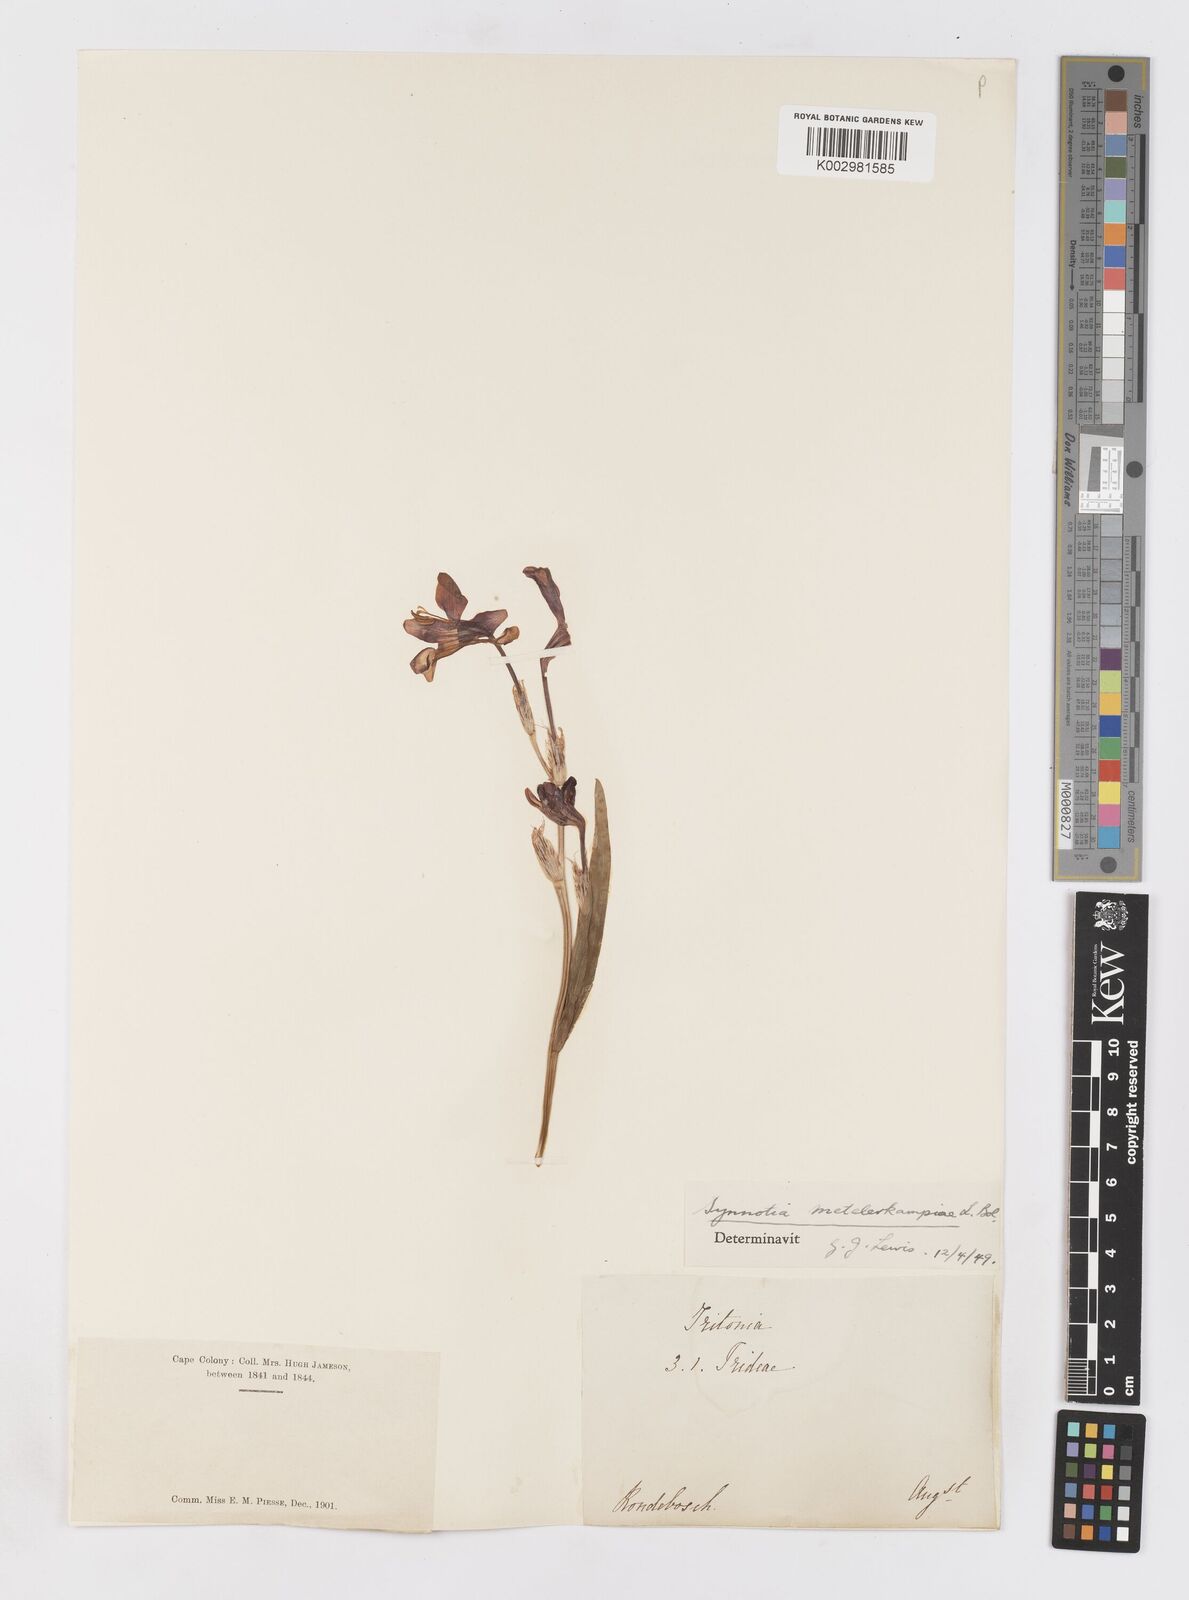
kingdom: Plantae
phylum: Tracheophyta
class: Liliopsida
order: Asparagales
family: Iridaceae
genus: Sparaxis
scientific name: Sparaxis metelerkampiae
